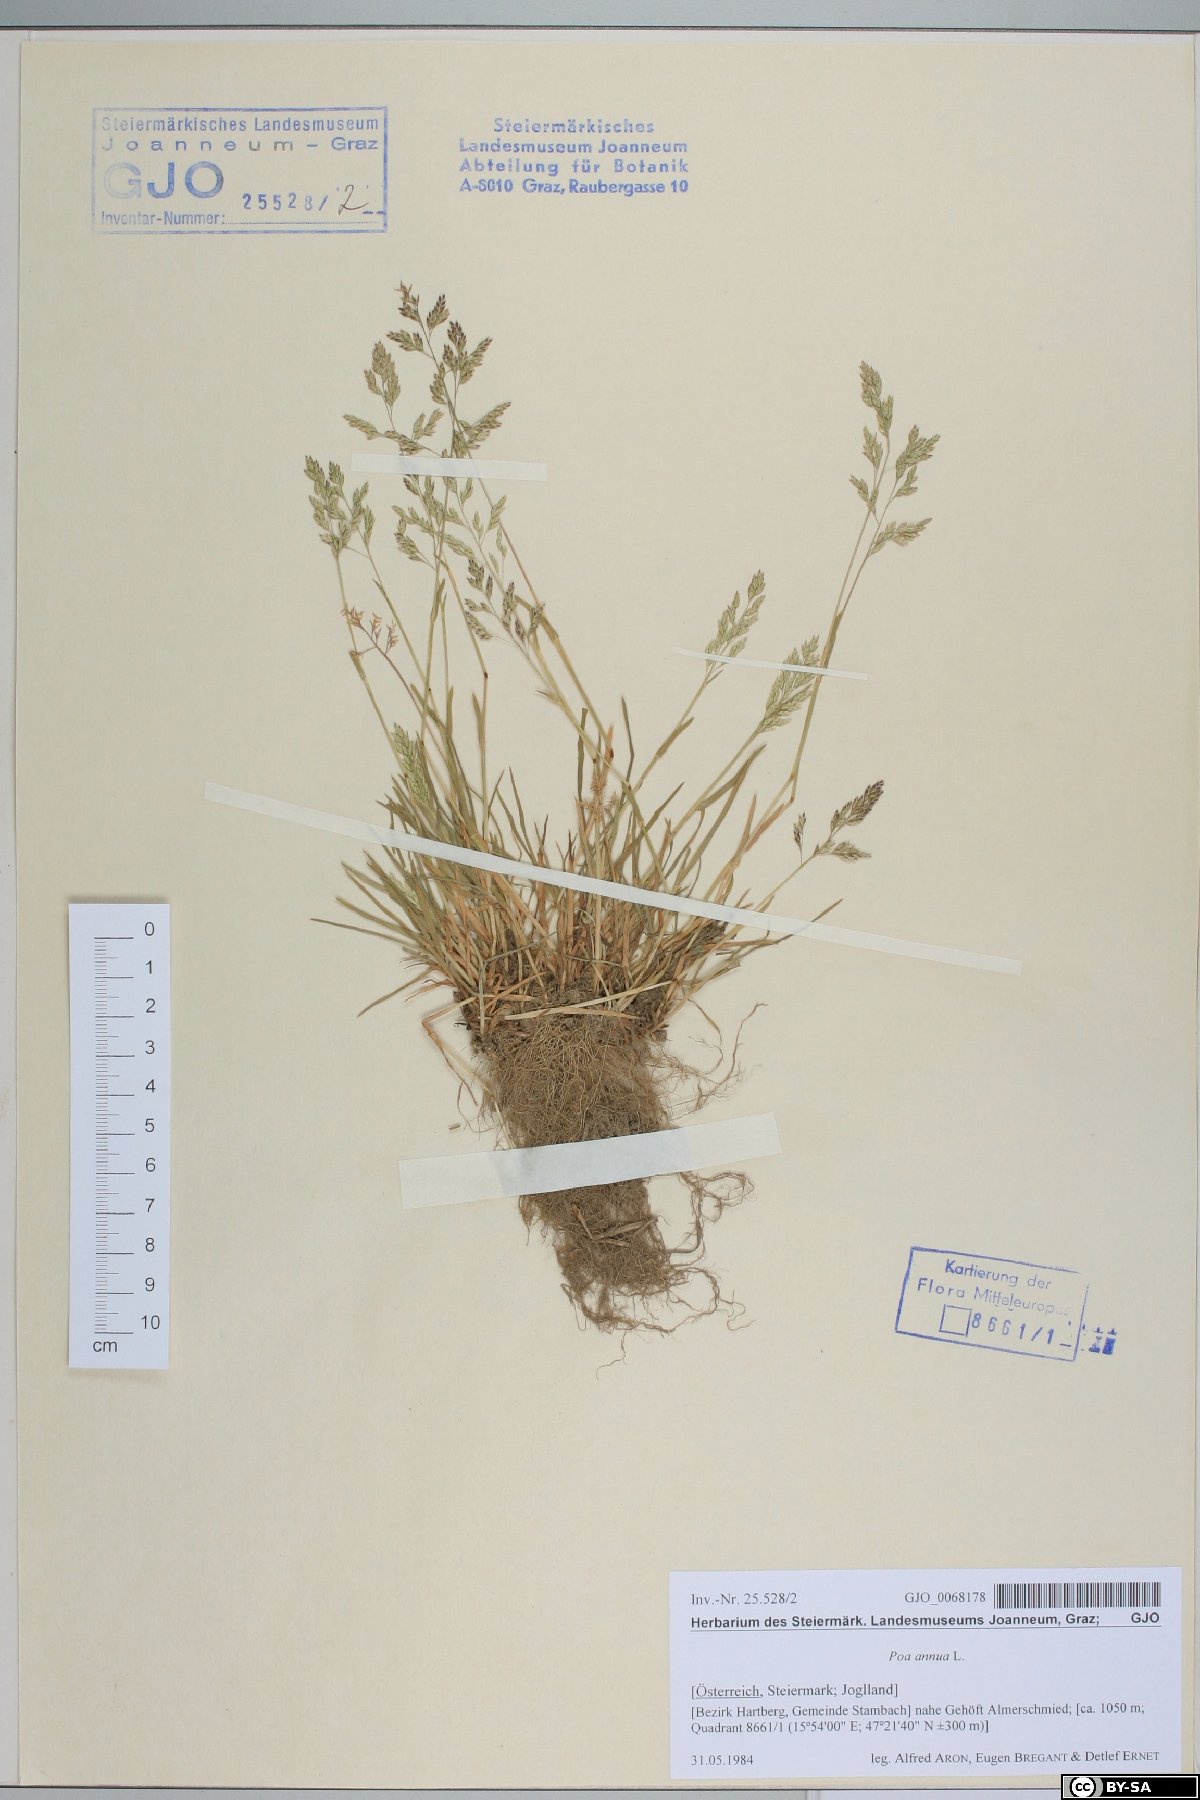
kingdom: Plantae
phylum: Tracheophyta
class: Liliopsida
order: Poales
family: Poaceae
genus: Poa
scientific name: Poa annua
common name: Annual bluegrass
